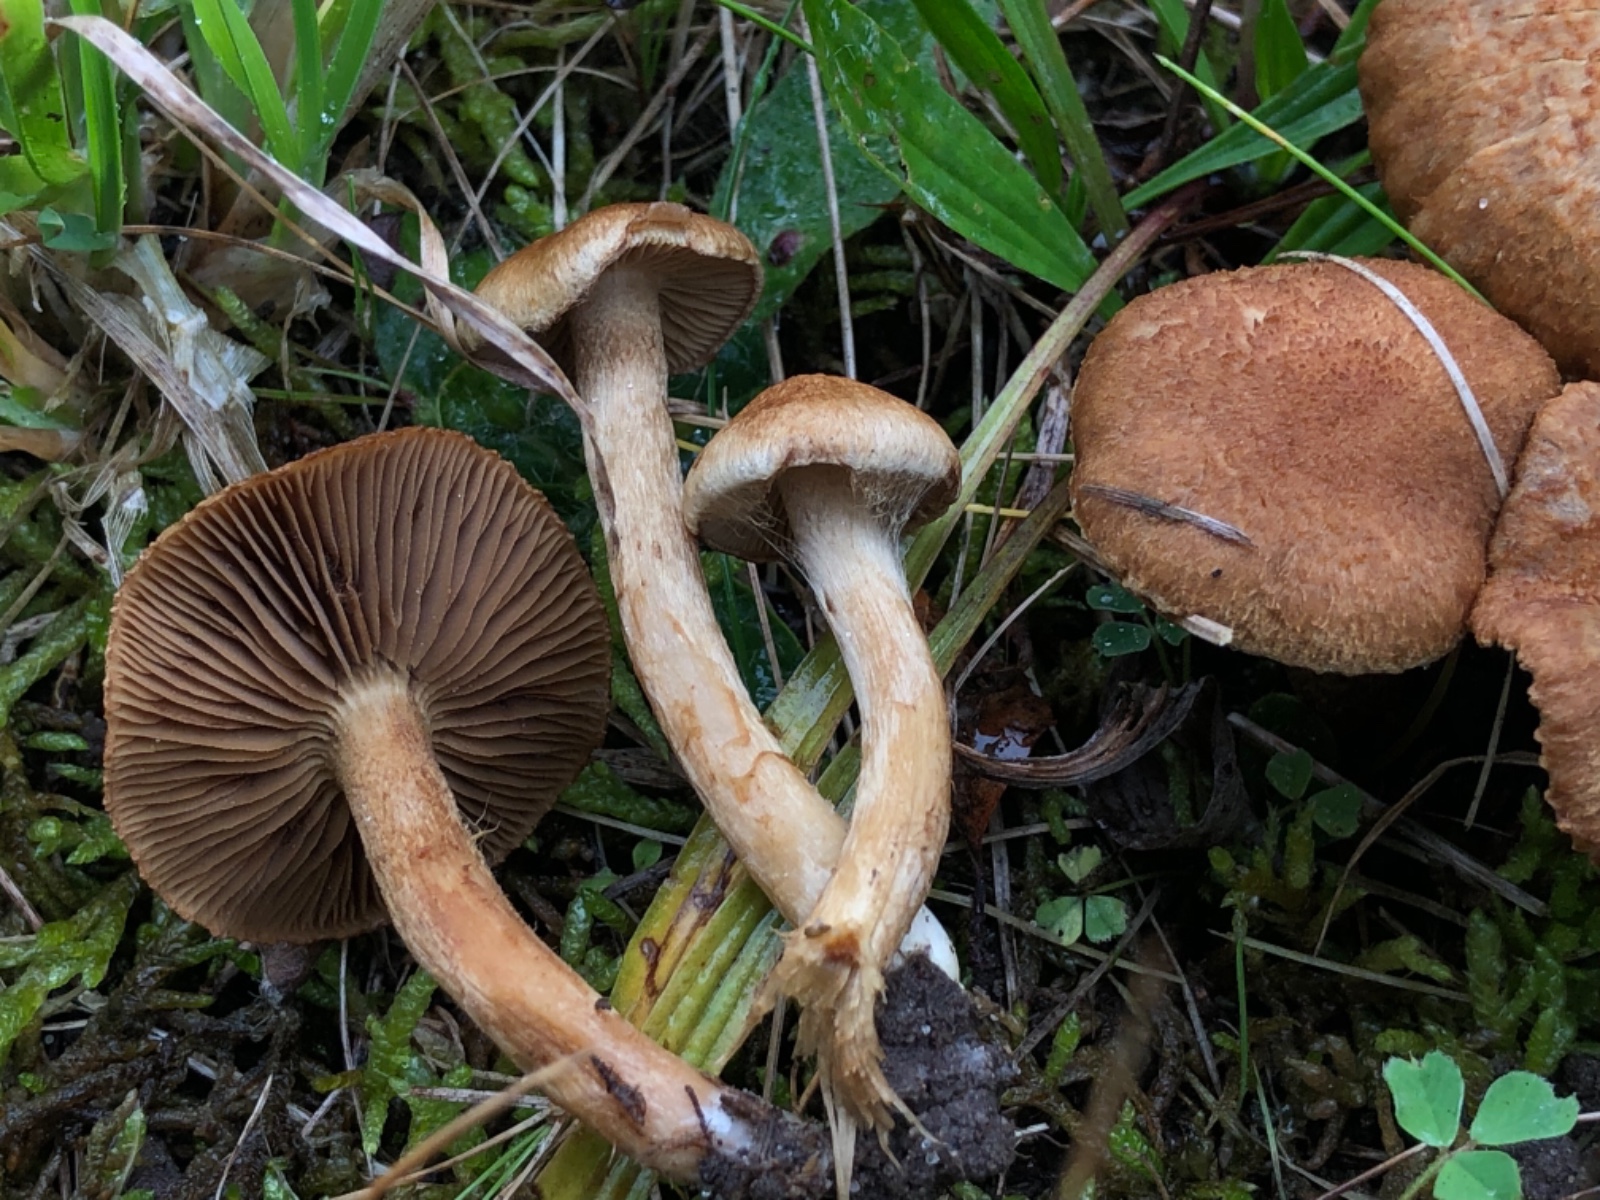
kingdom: Fungi
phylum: Basidiomycota
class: Agaricomycetes
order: Agaricales
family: Inocybaceae
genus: Mallocybe
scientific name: Mallocybe plebeia
